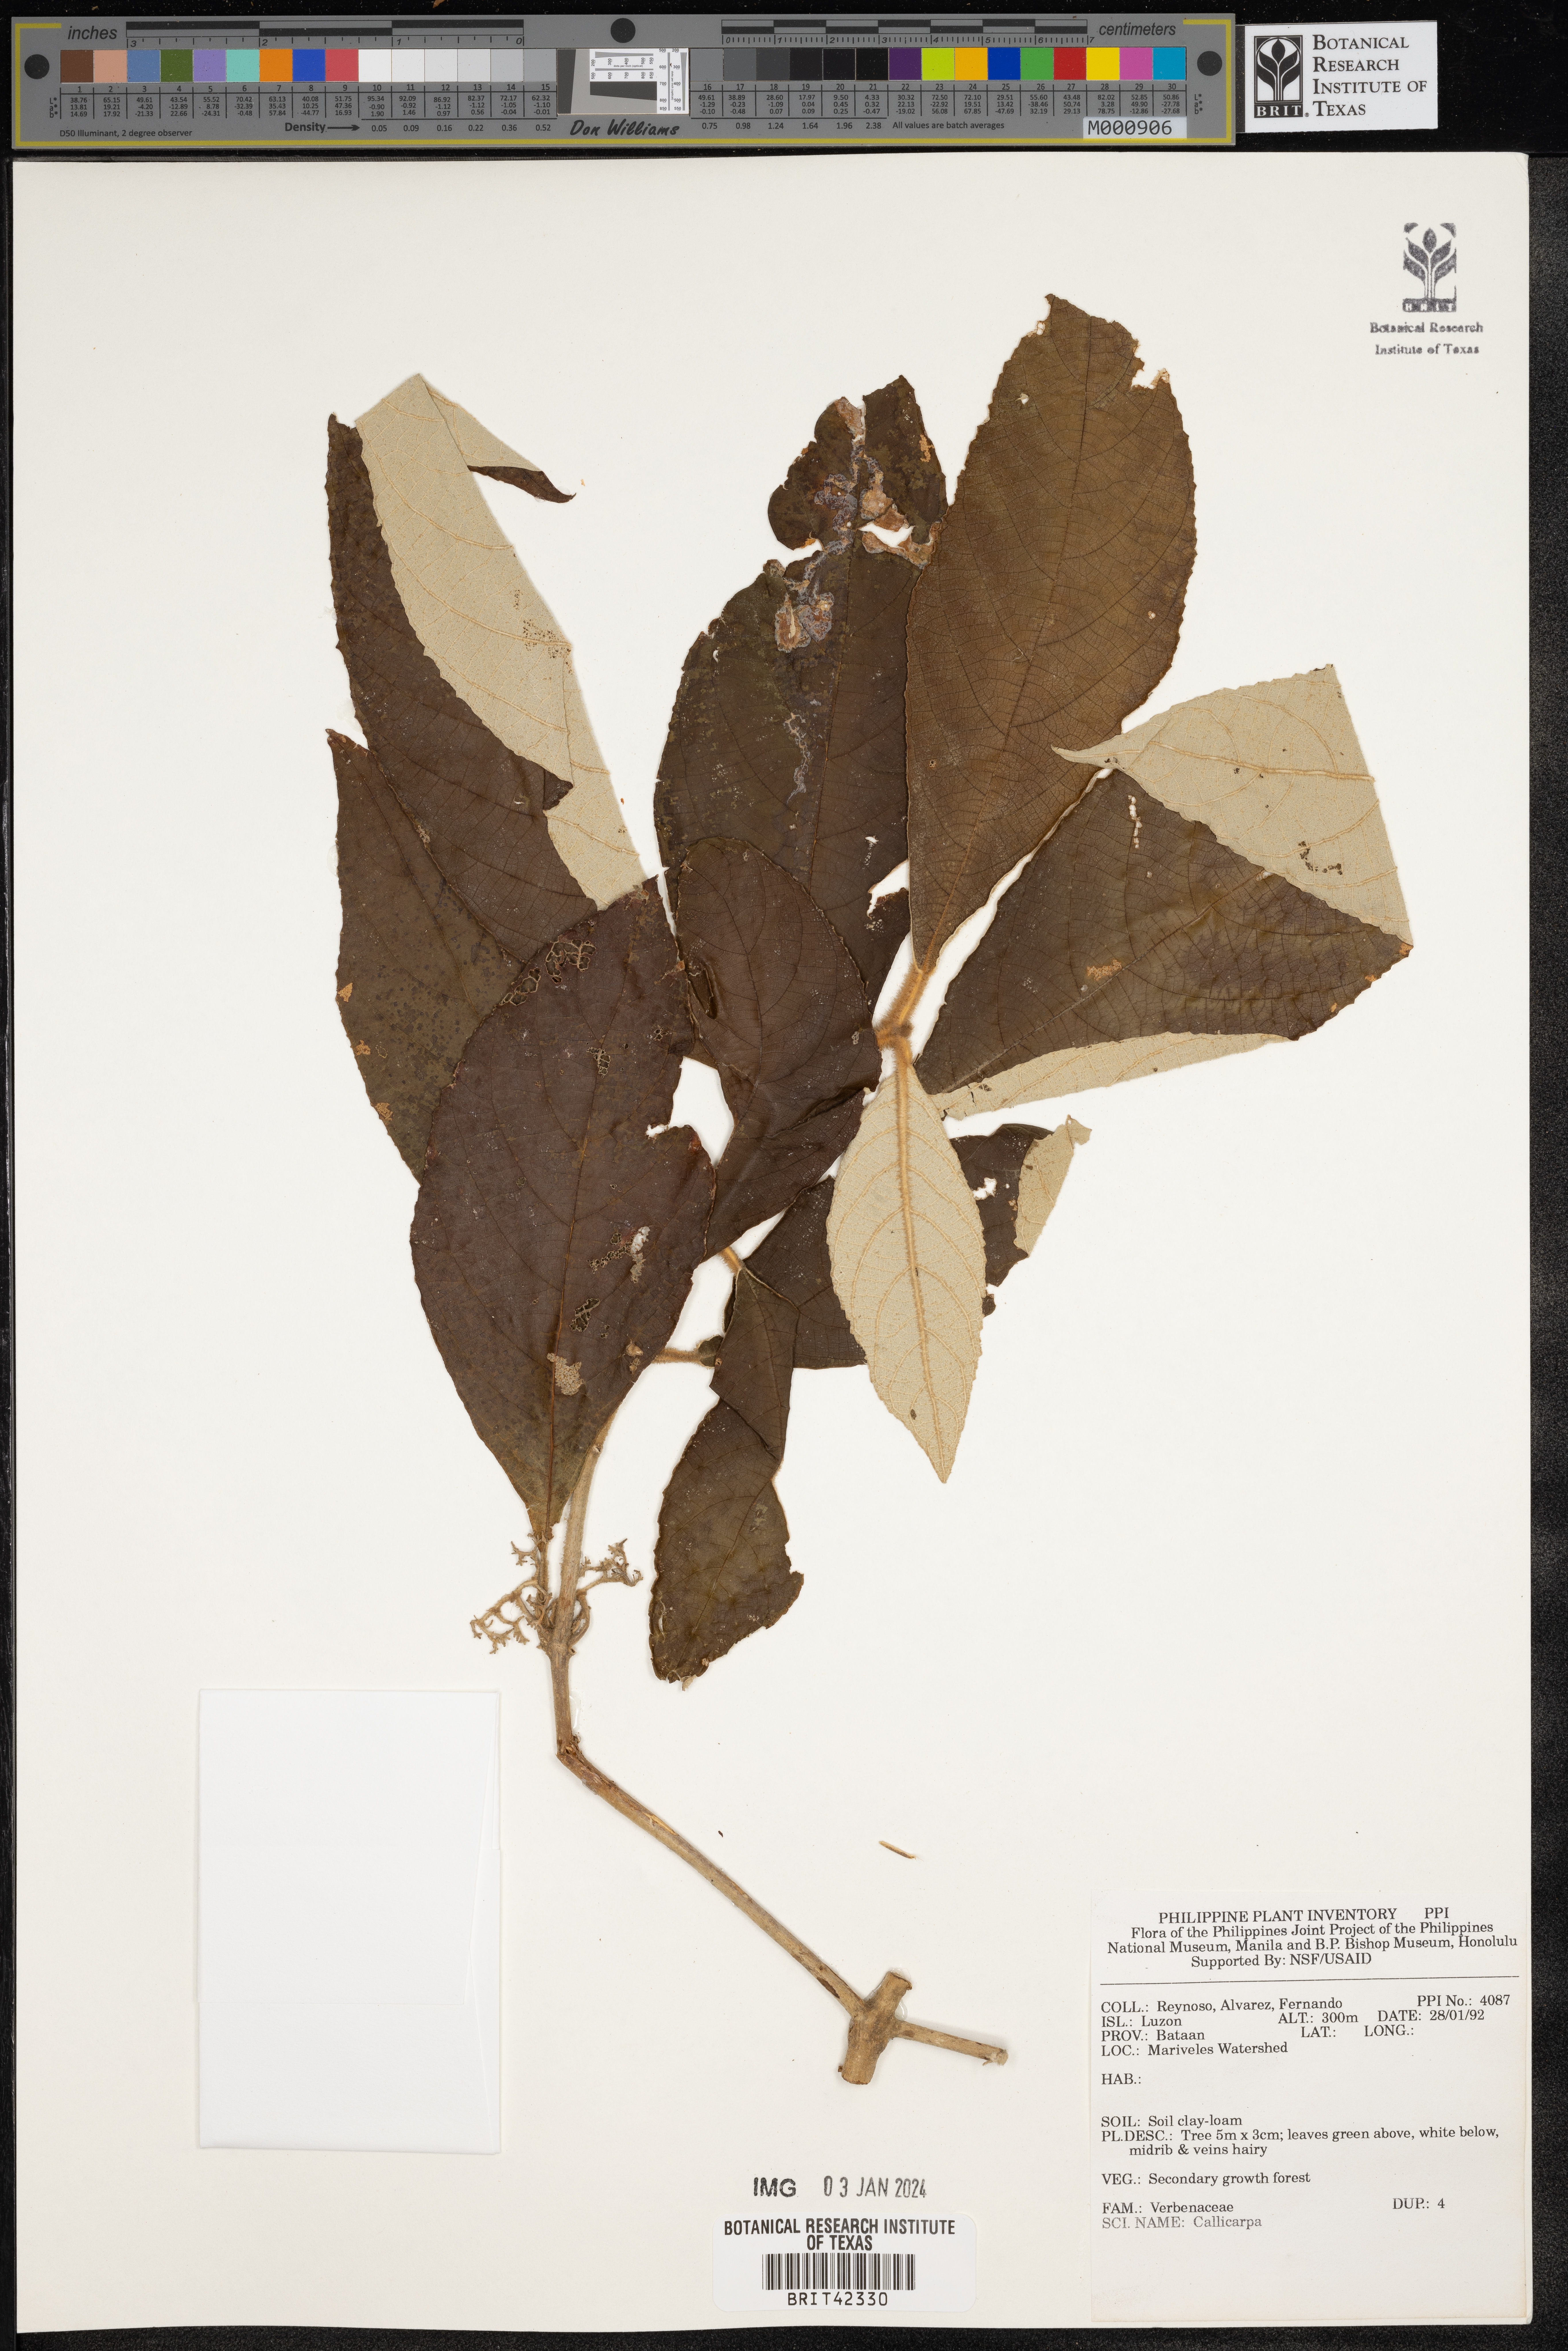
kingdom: Plantae
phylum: Tracheophyta
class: Magnoliopsida
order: Lamiales
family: Lamiaceae
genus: Callicarpa
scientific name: Callicarpa
